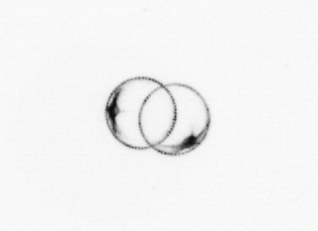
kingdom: Chromista
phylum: Ochrophyta
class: Bacillariophyceae
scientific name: Bacillariophyceae
